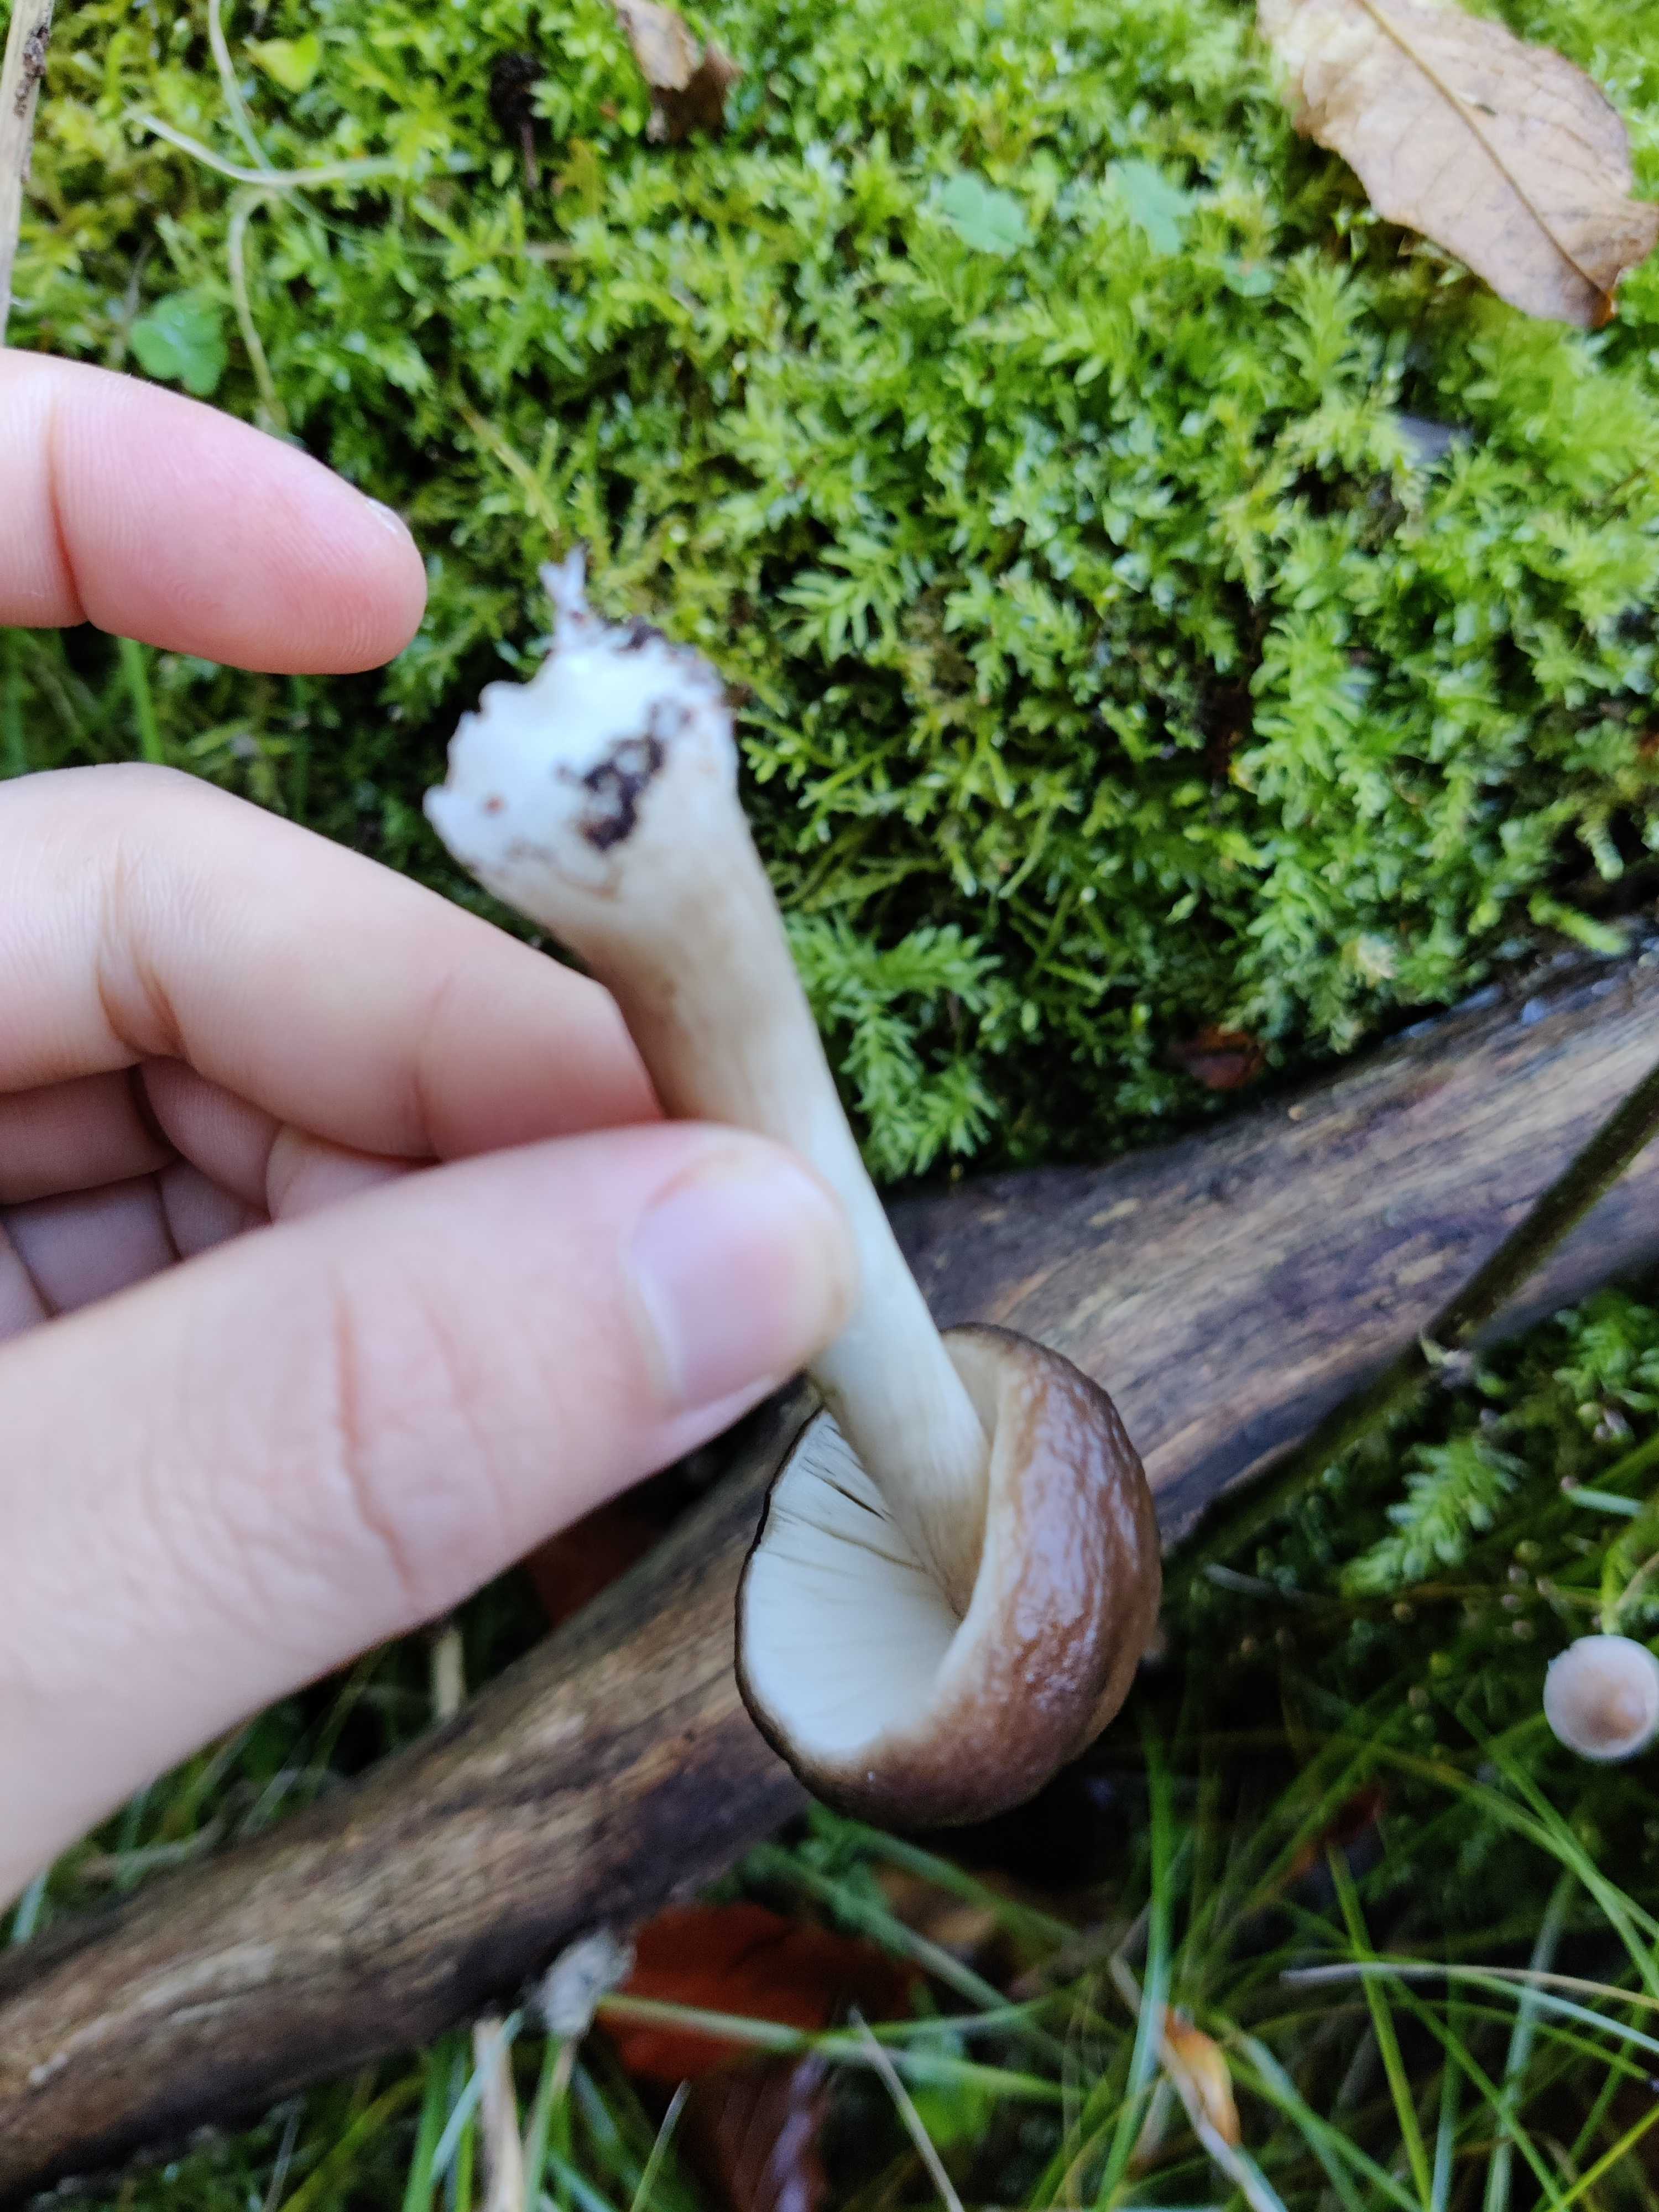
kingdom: Fungi
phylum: Basidiomycota
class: Agaricomycetes
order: Agaricales
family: Pluteaceae
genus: Pluteus
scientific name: Pluteus cervinus
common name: sodfarvet skærmhat
